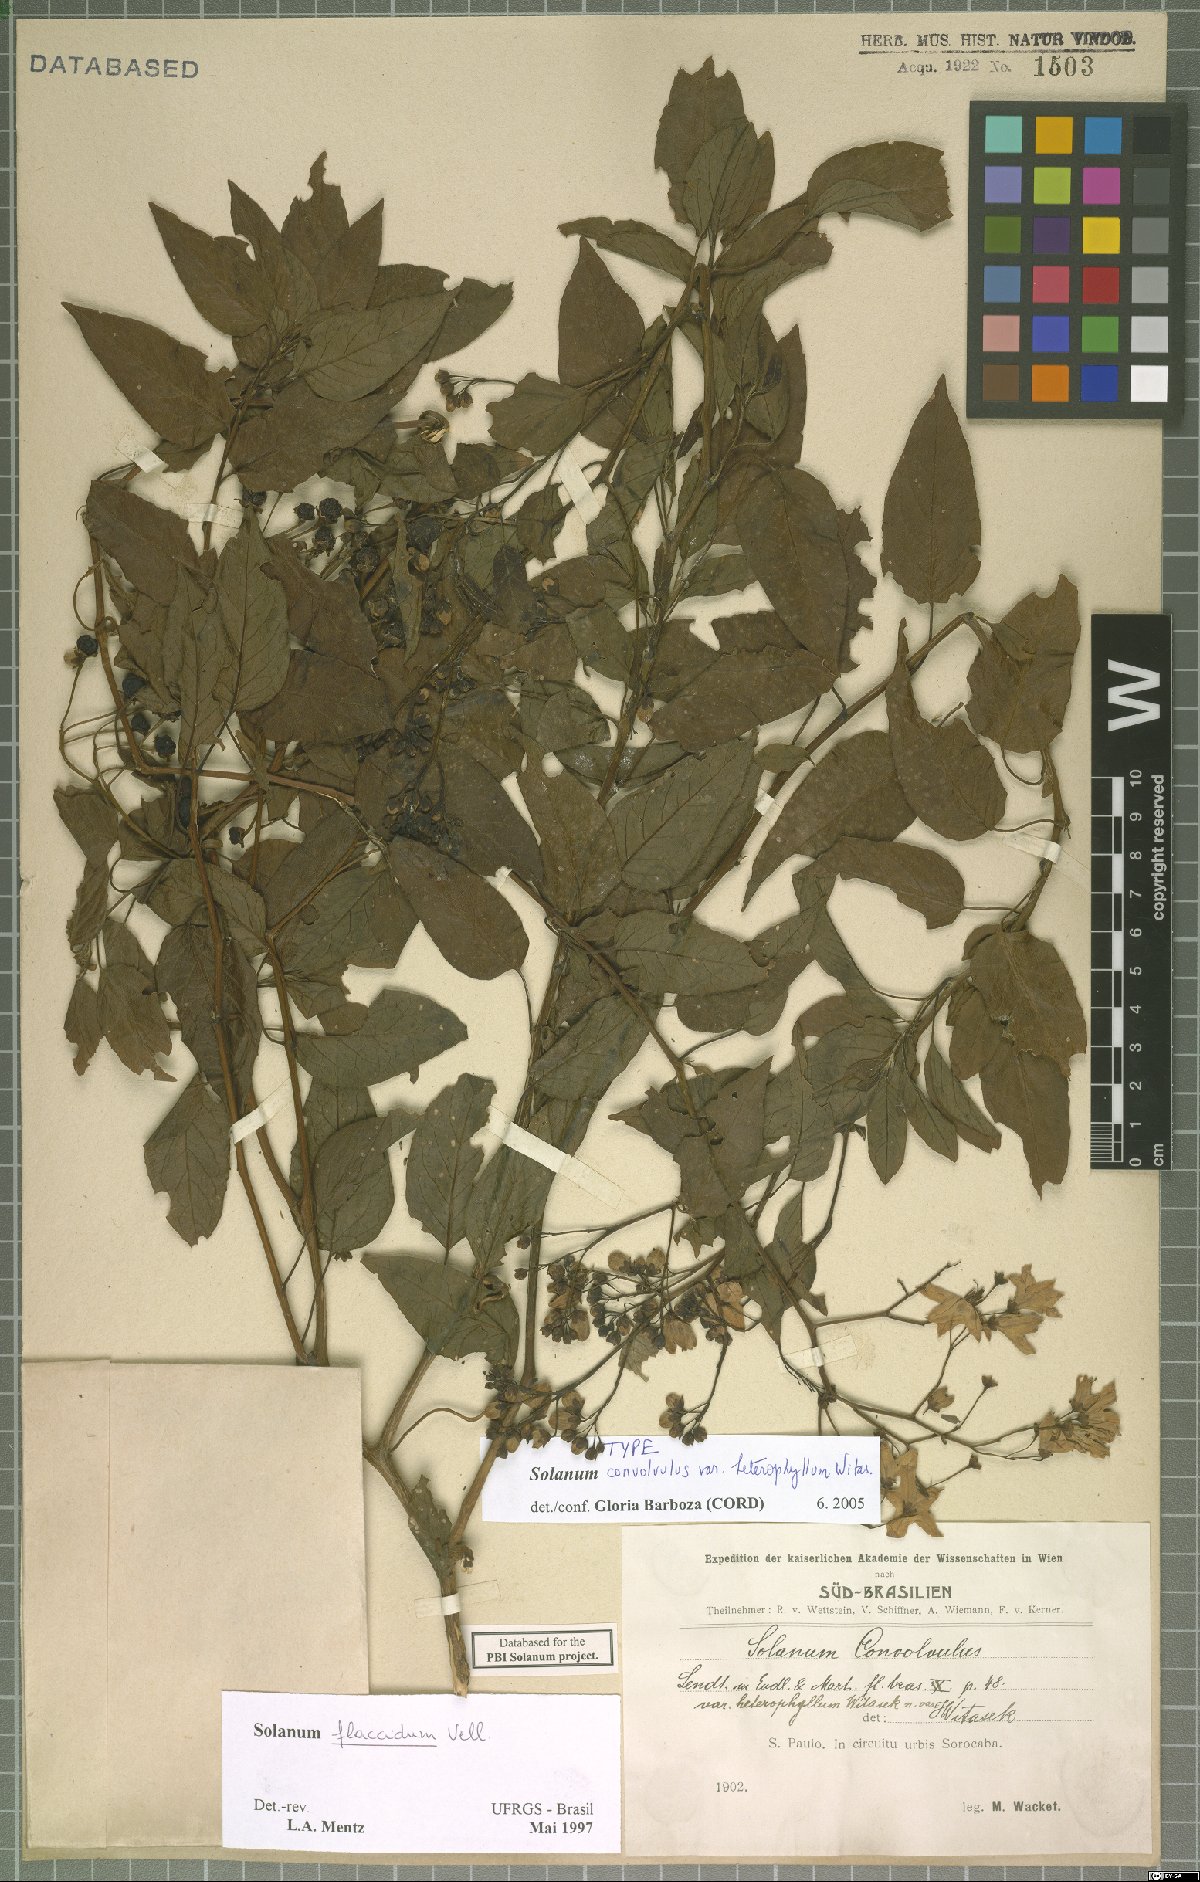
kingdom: Plantae
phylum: Tracheophyta
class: Magnoliopsida
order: Solanales
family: Solanaceae
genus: Solanum
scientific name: Solanum flaccidum
